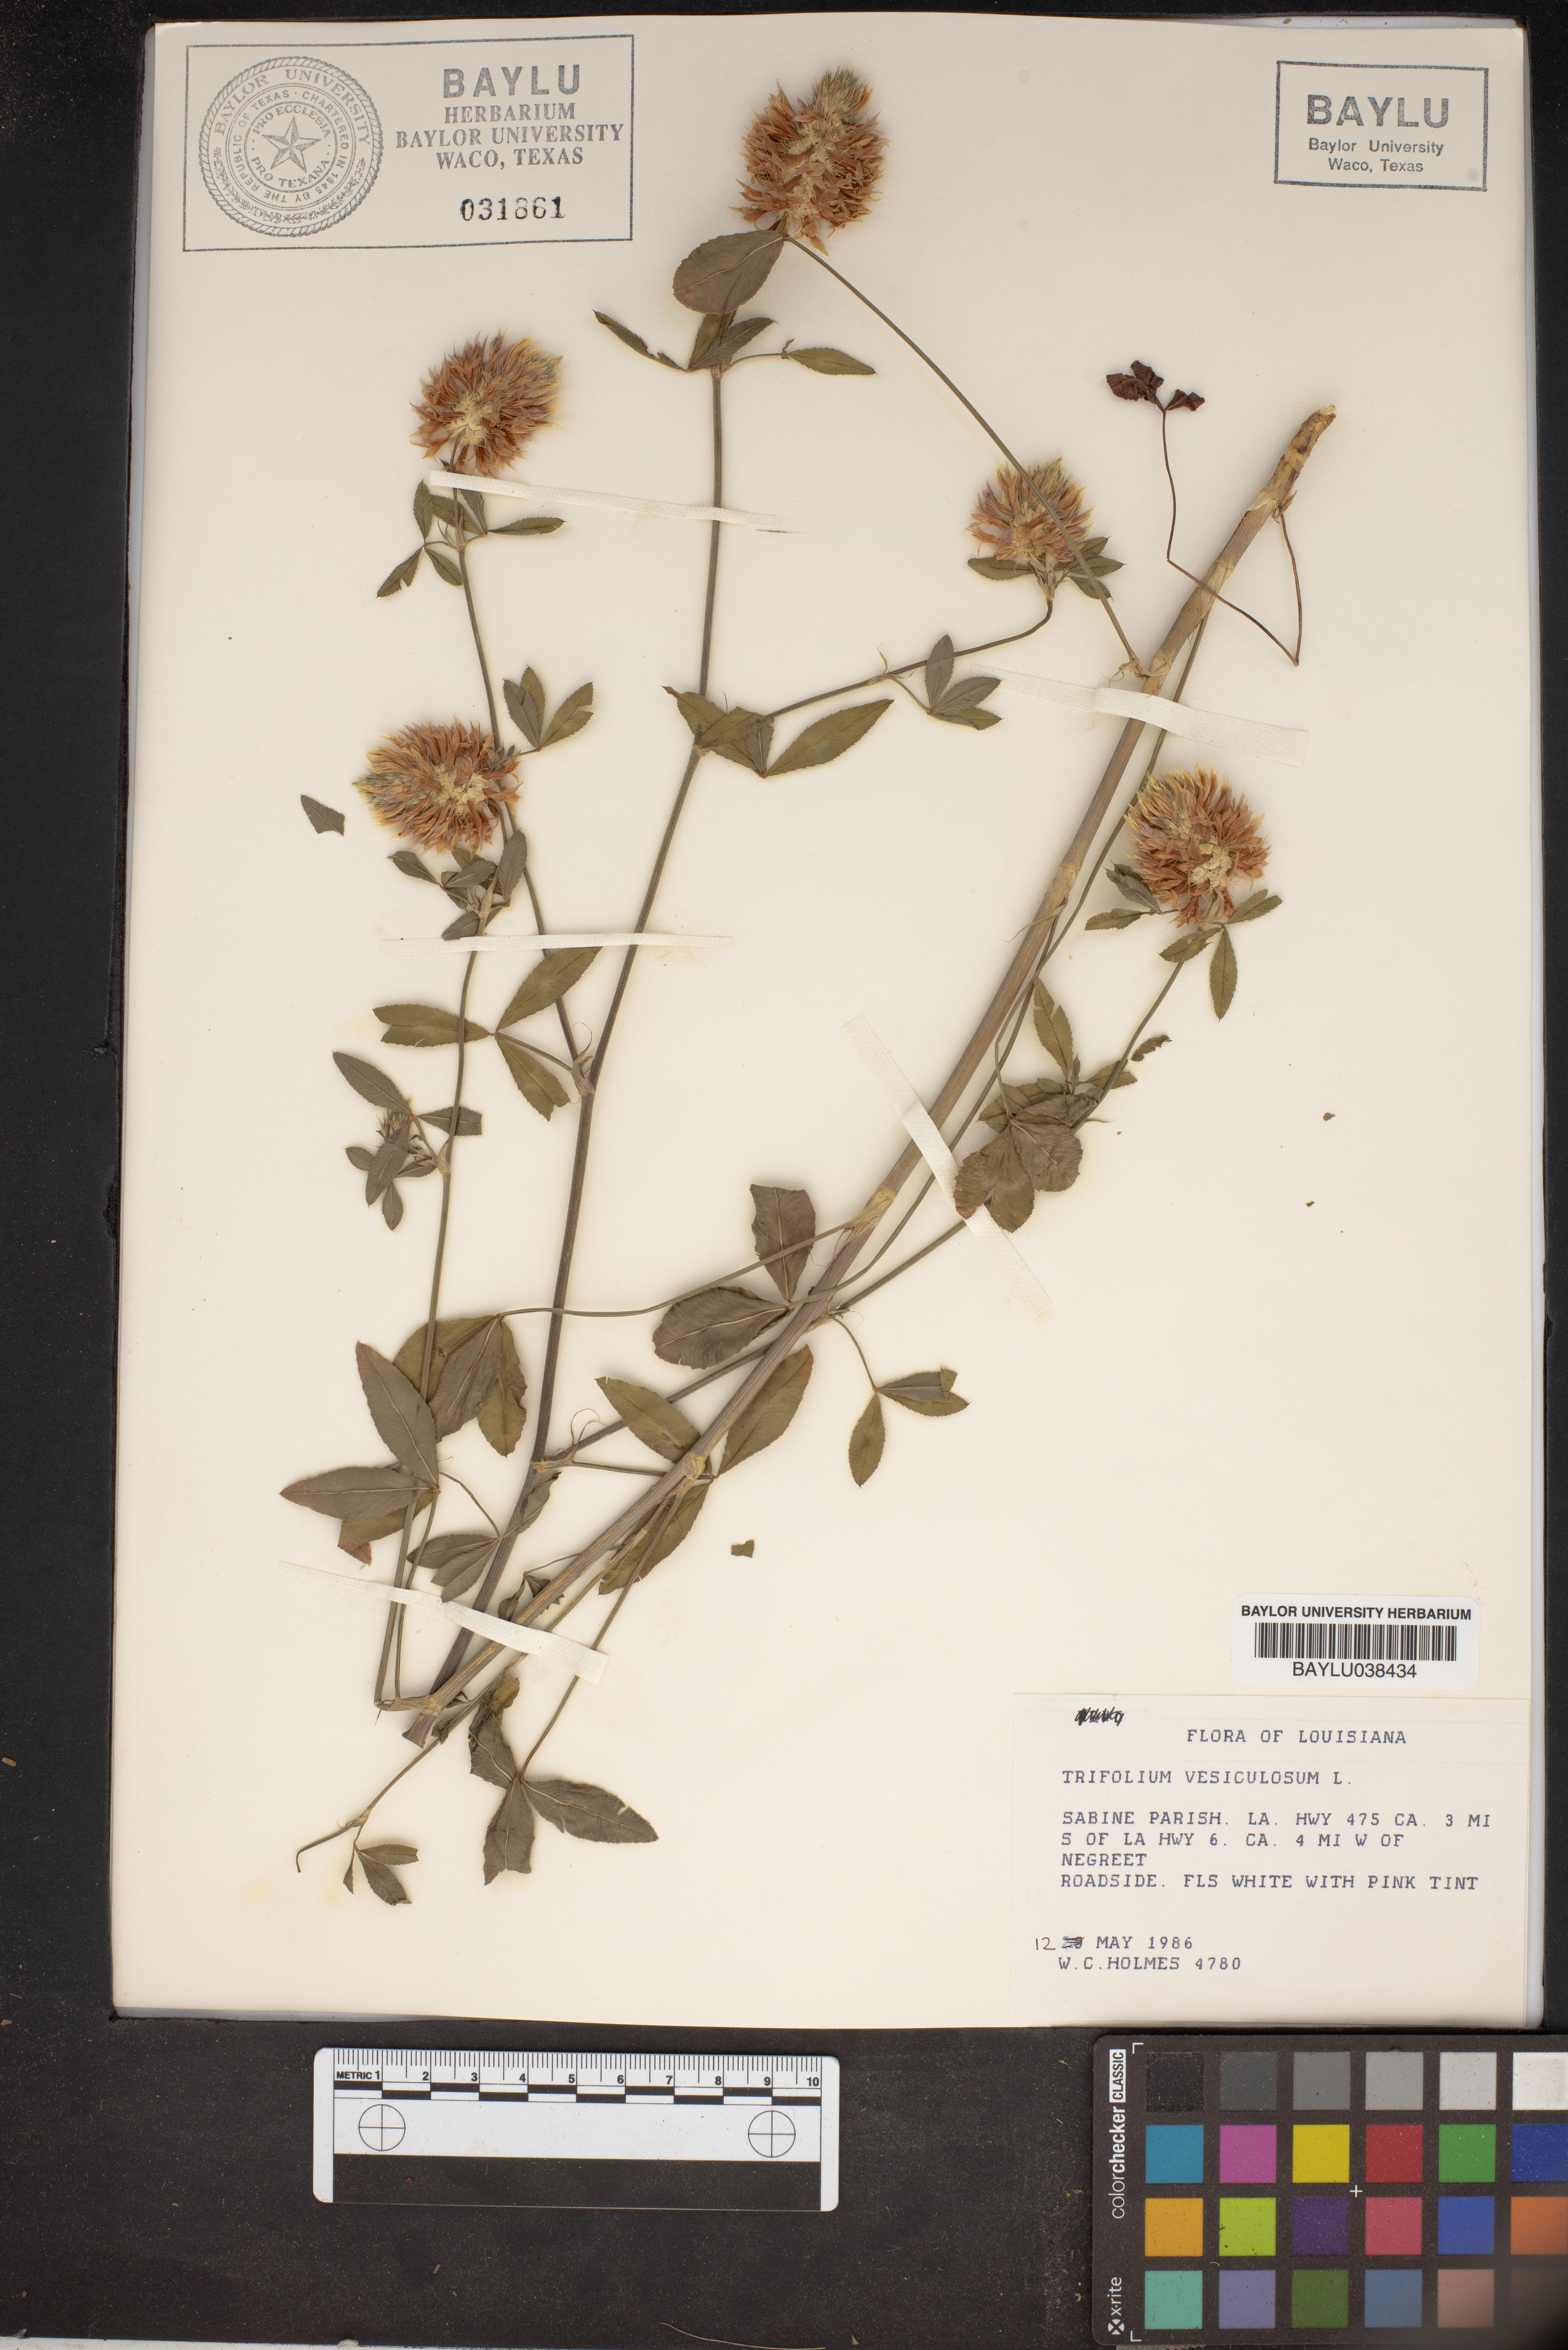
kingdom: Plantae
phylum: Tracheophyta
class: Magnoliopsida
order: Fabales
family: Fabaceae
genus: Trifolium
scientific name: Trifolium vesiculosum
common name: Arrowleaf clover
